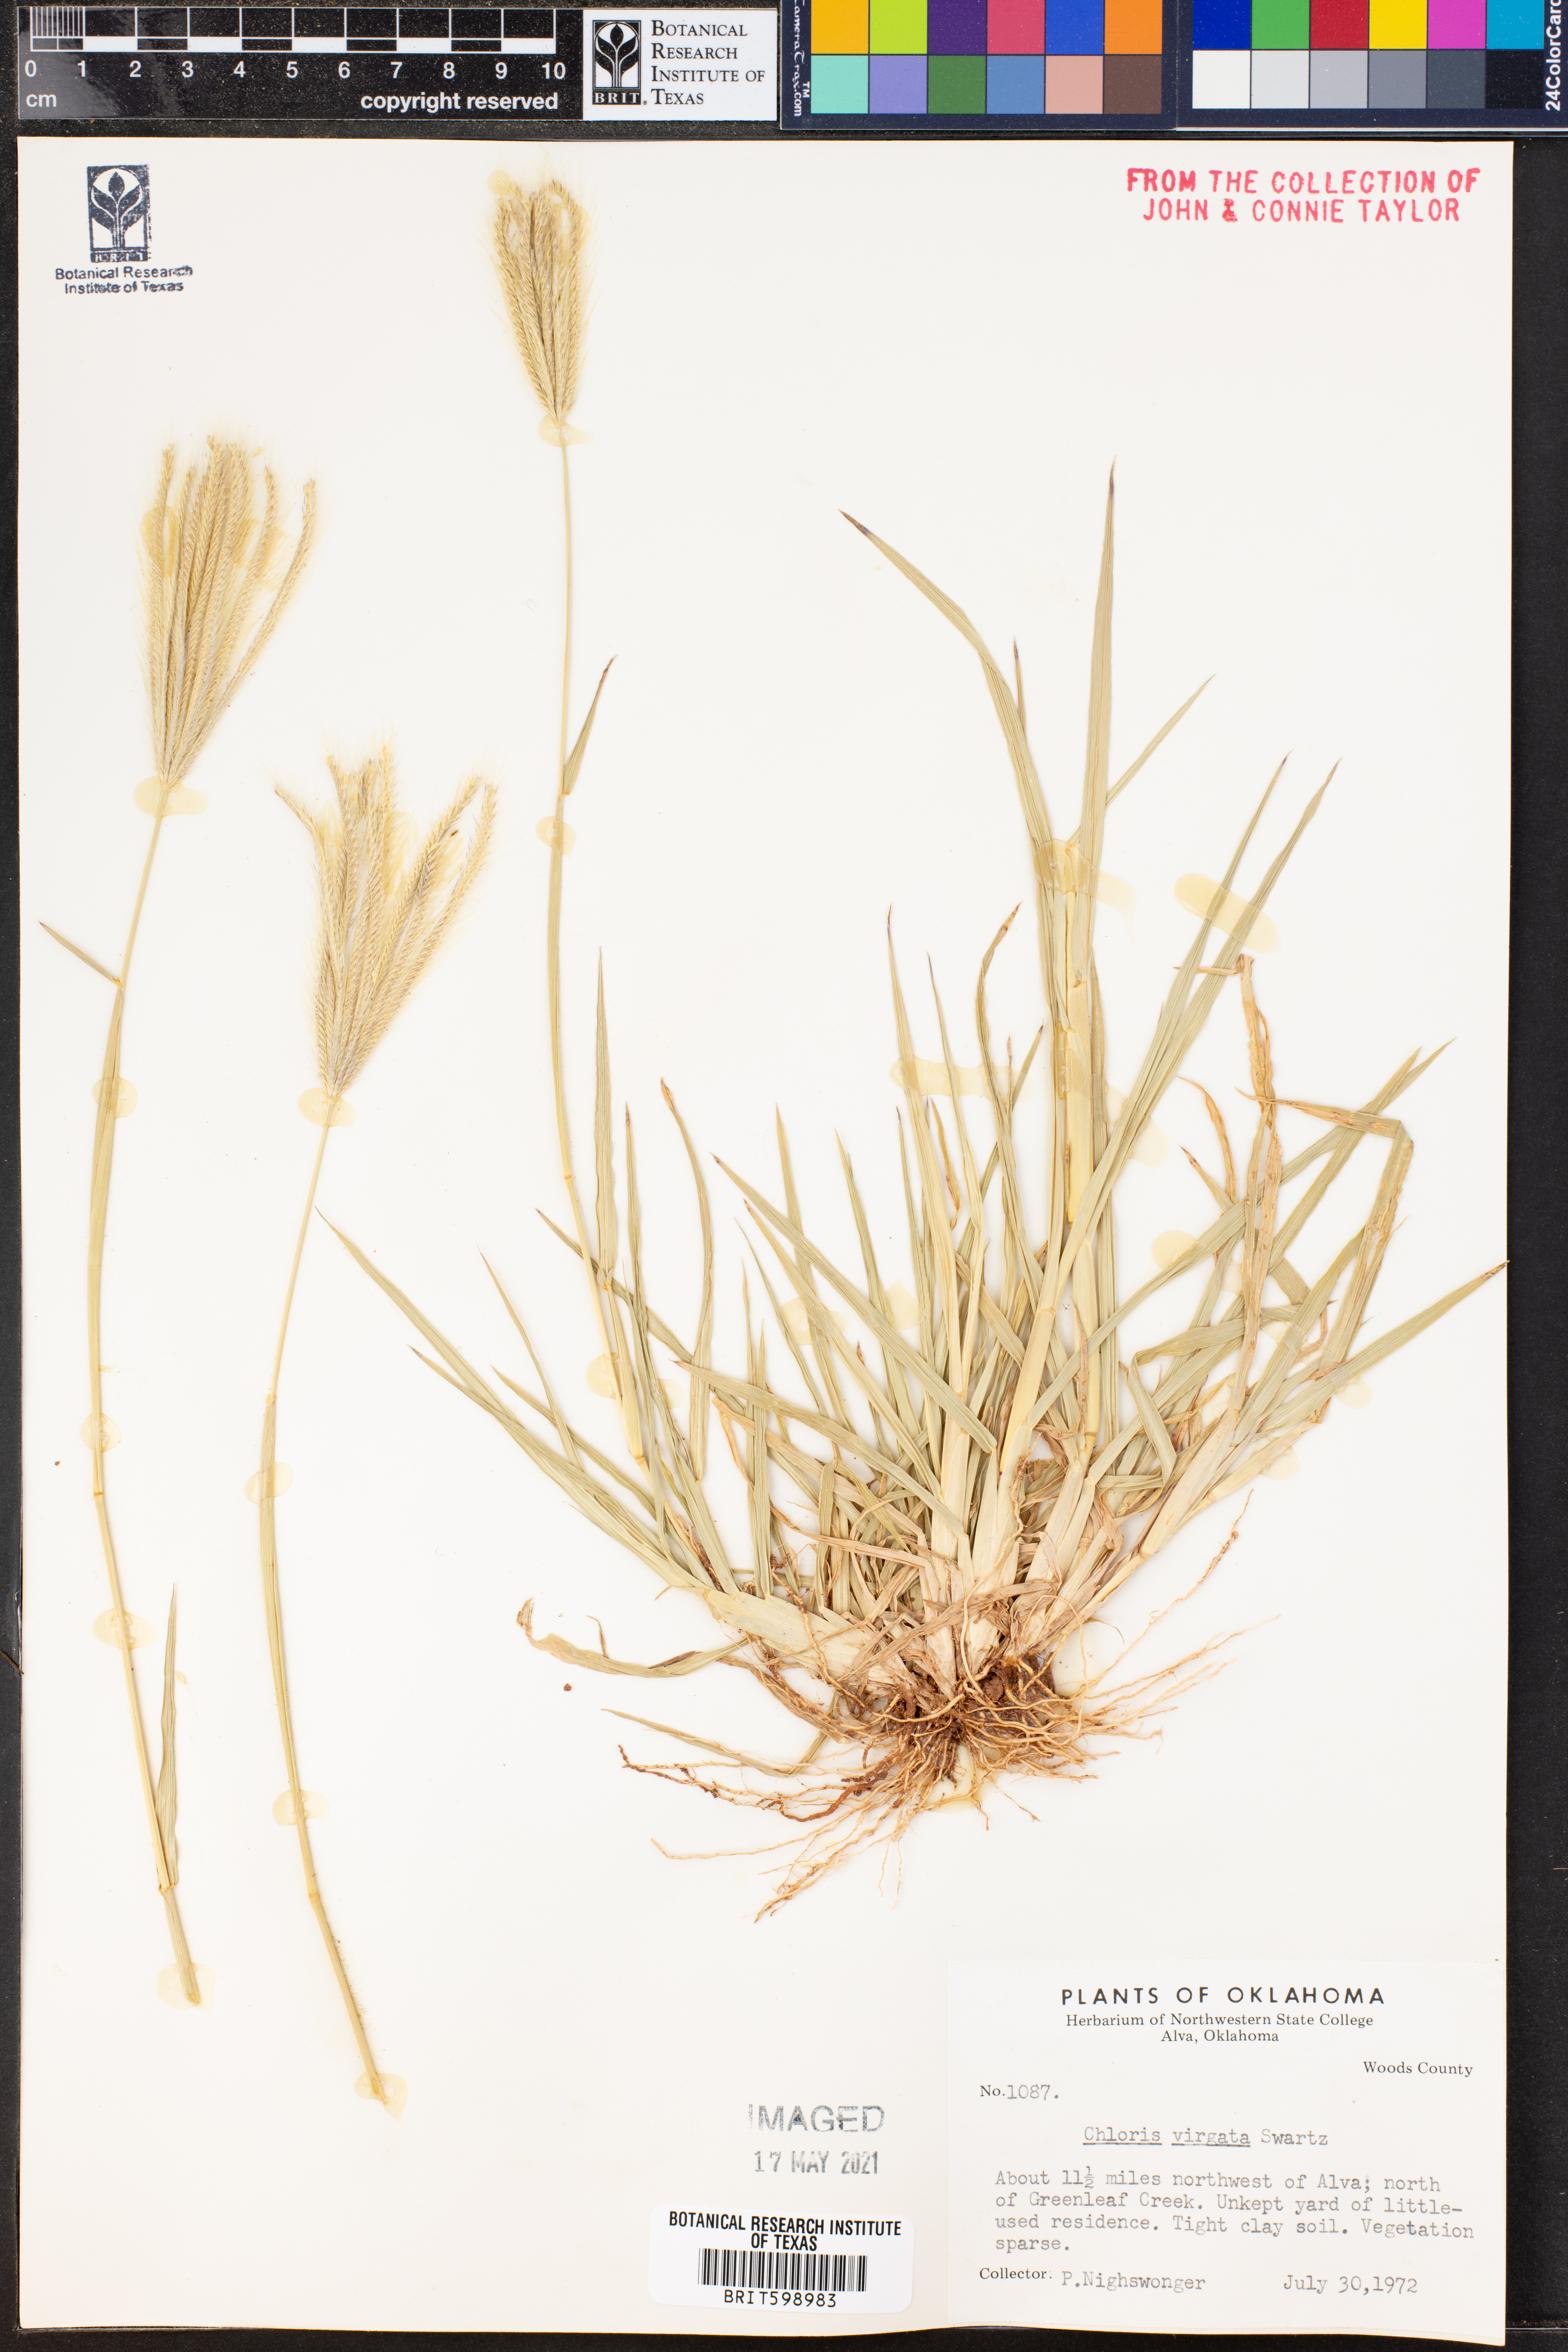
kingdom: Plantae
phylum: Tracheophyta
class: Liliopsida
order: Poales
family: Poaceae
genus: Chloris
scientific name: Chloris virgata
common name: Feathery rhodes-grass
